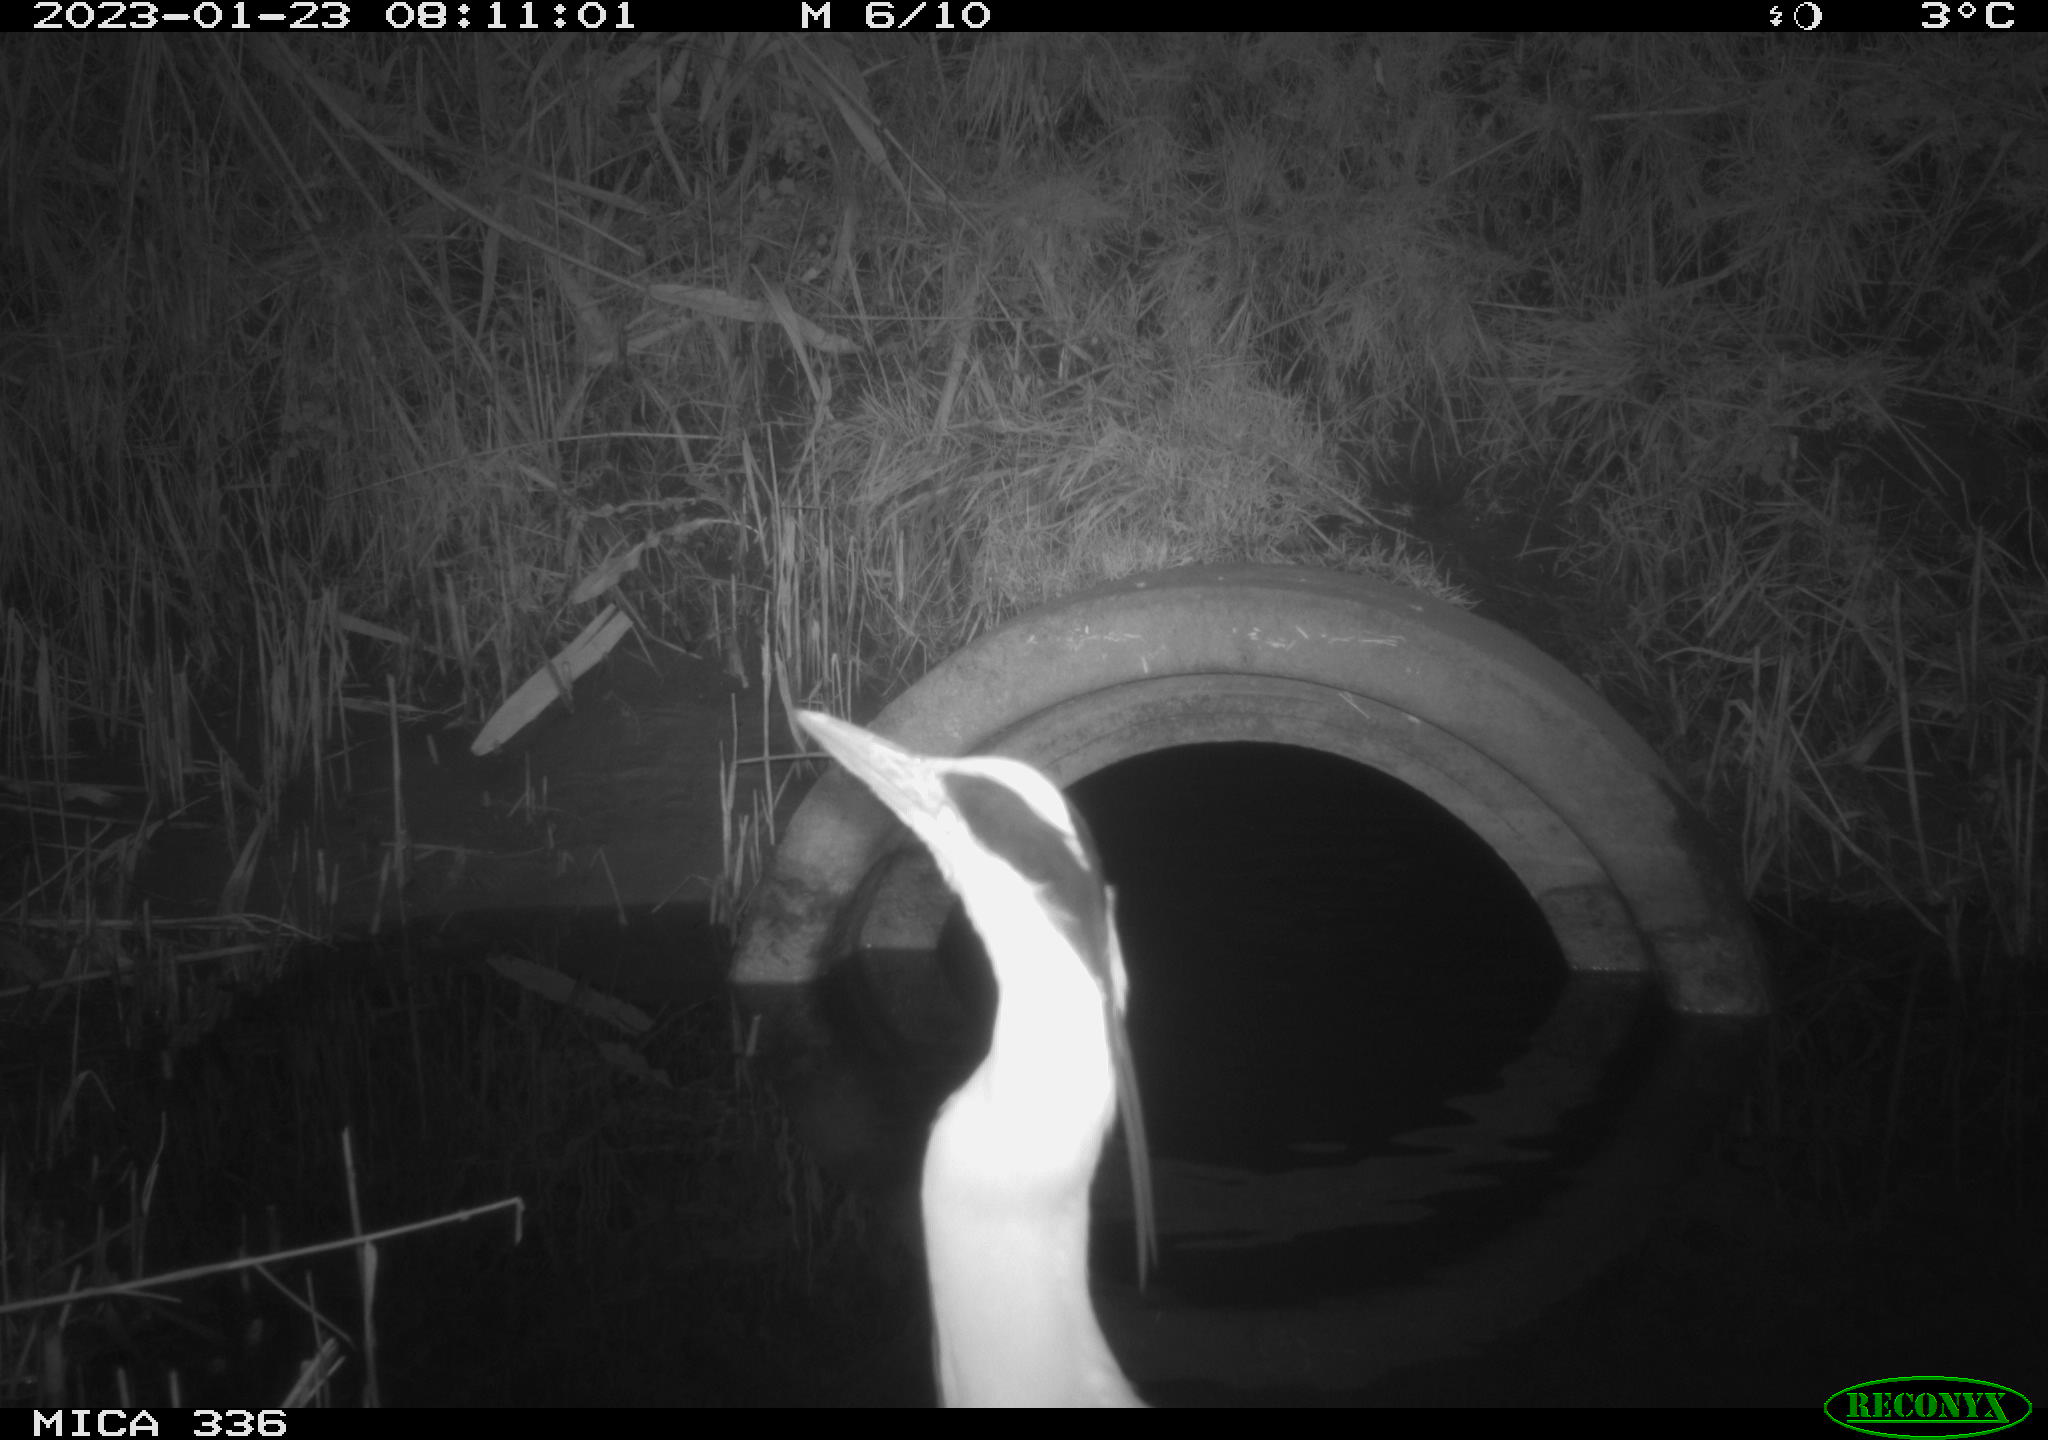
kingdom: Animalia
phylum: Chordata
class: Aves
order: Pelecaniformes
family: Ardeidae
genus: Ardea
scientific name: Ardea cinerea
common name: Grey heron
